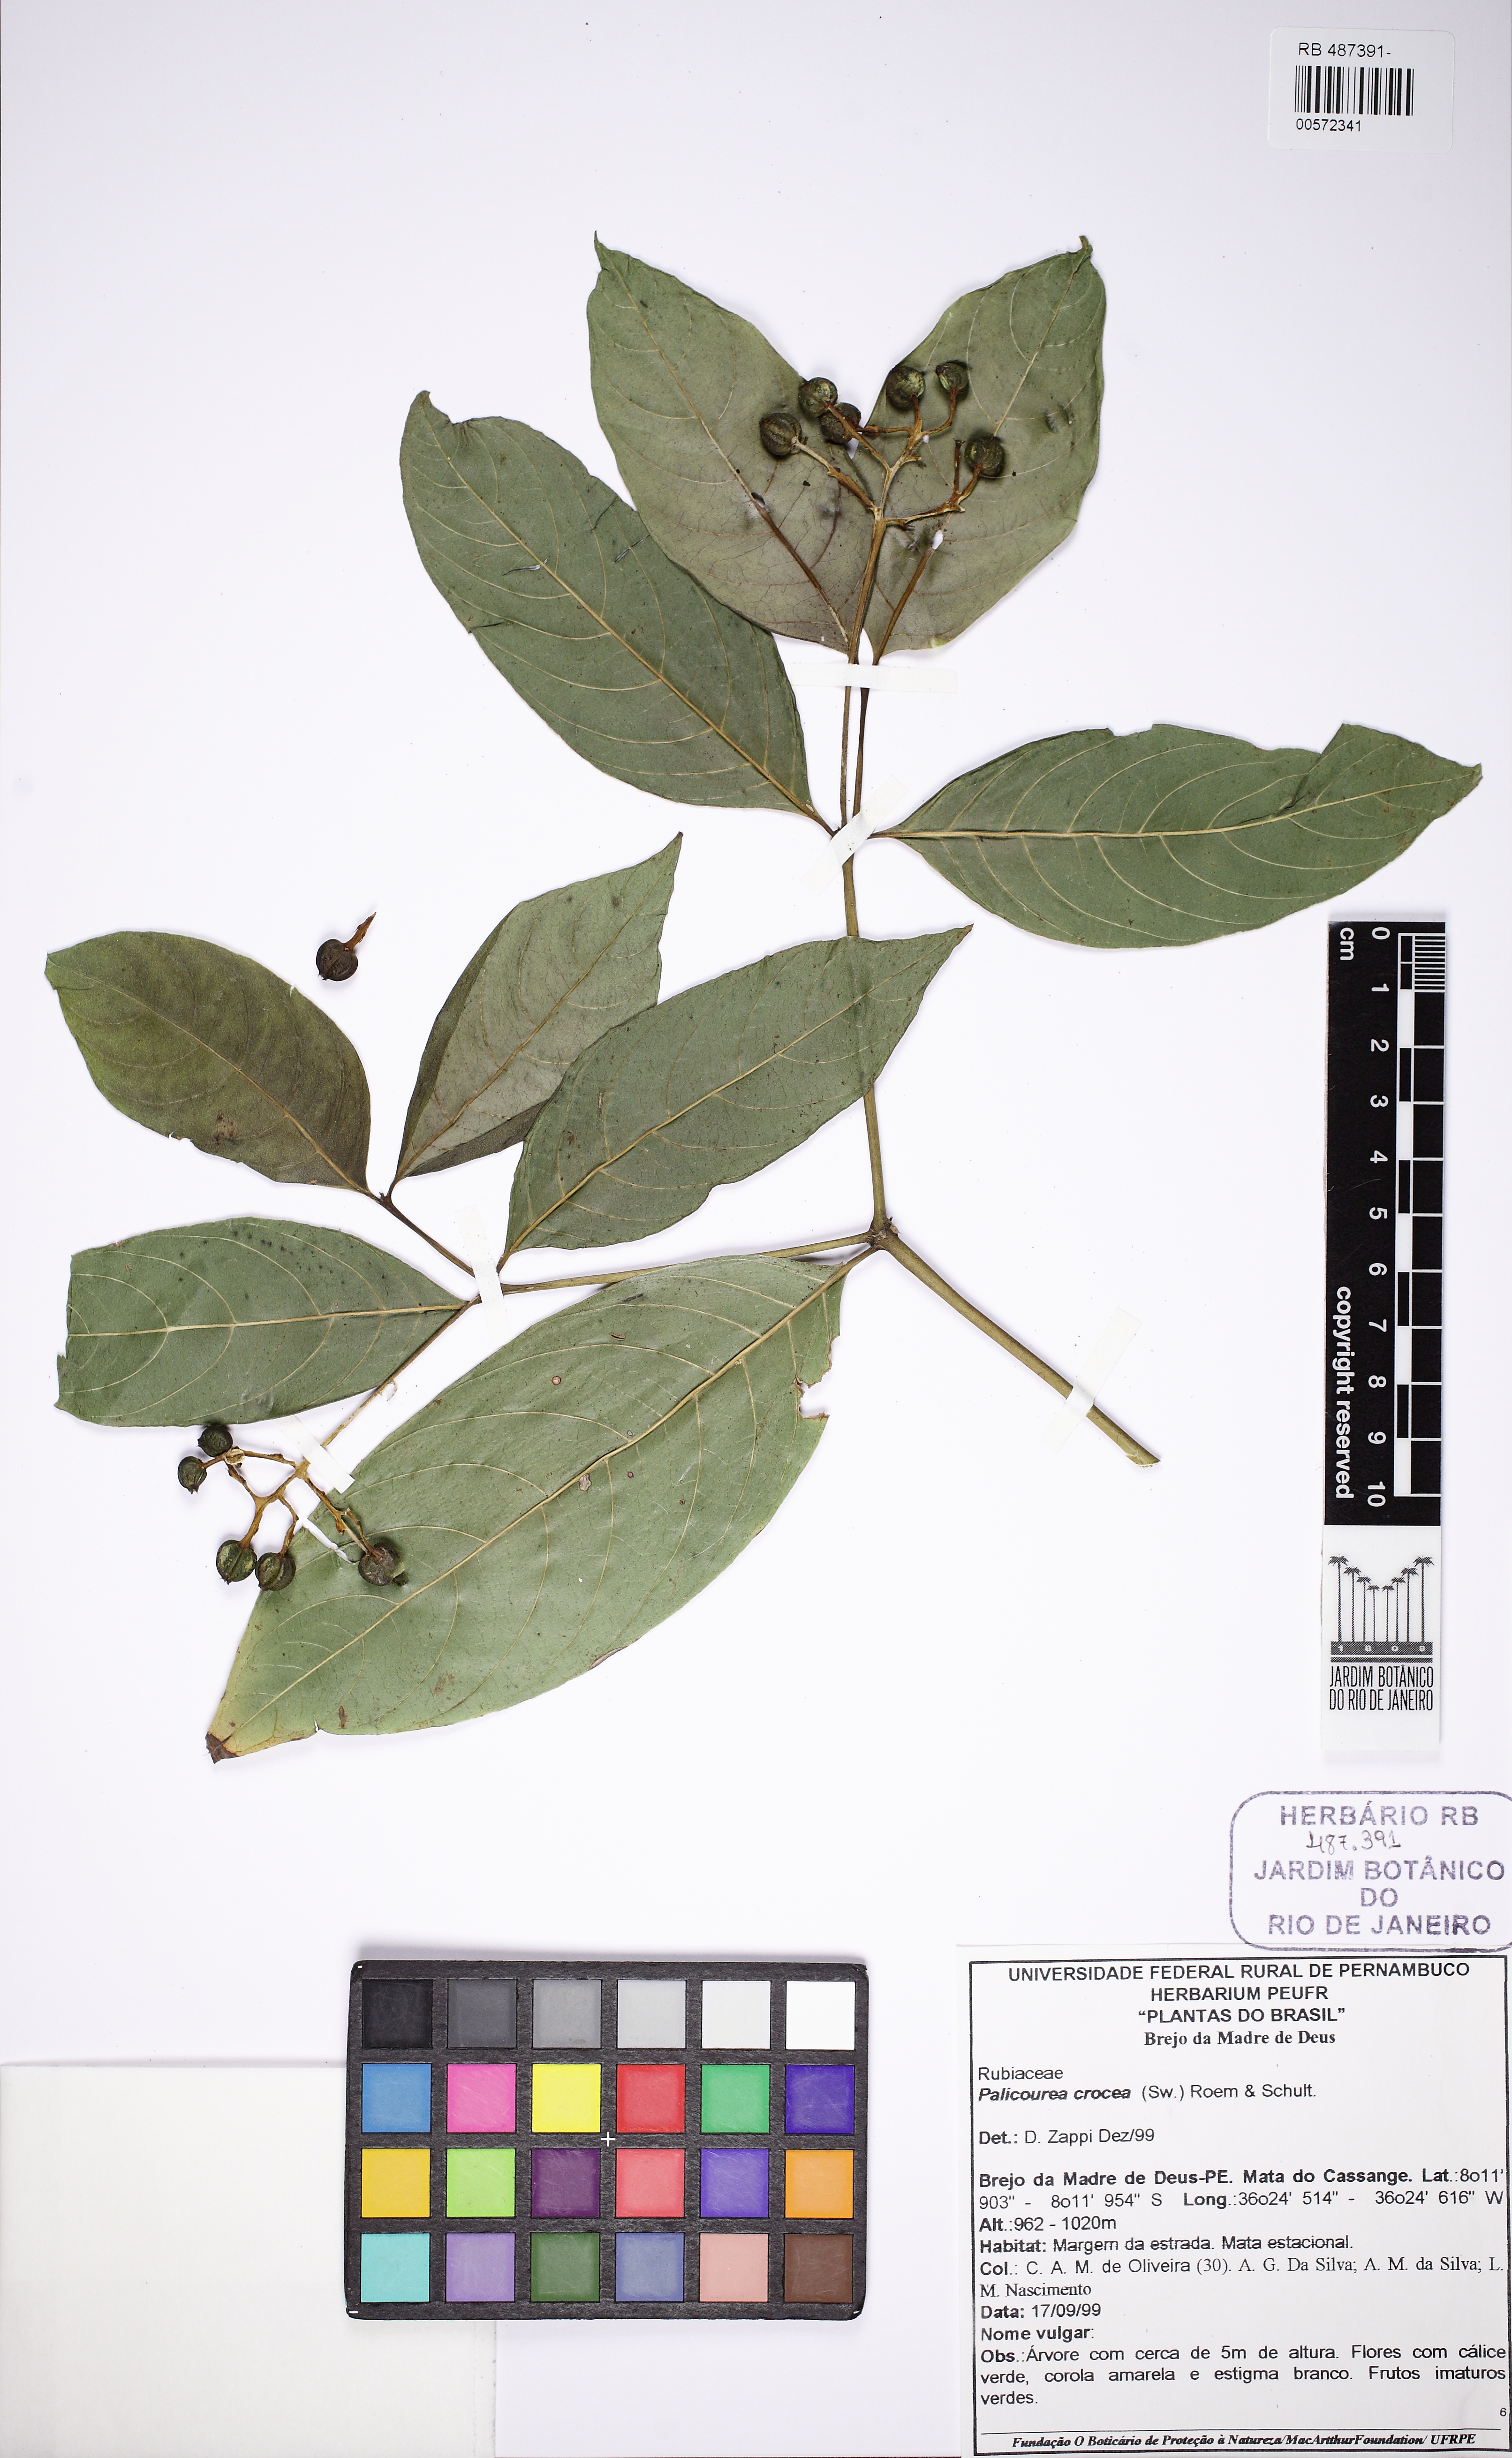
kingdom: Plantae
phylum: Tracheophyta
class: Magnoliopsida
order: Gentianales
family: Rubiaceae
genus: Palicourea
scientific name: Palicourea crocea
